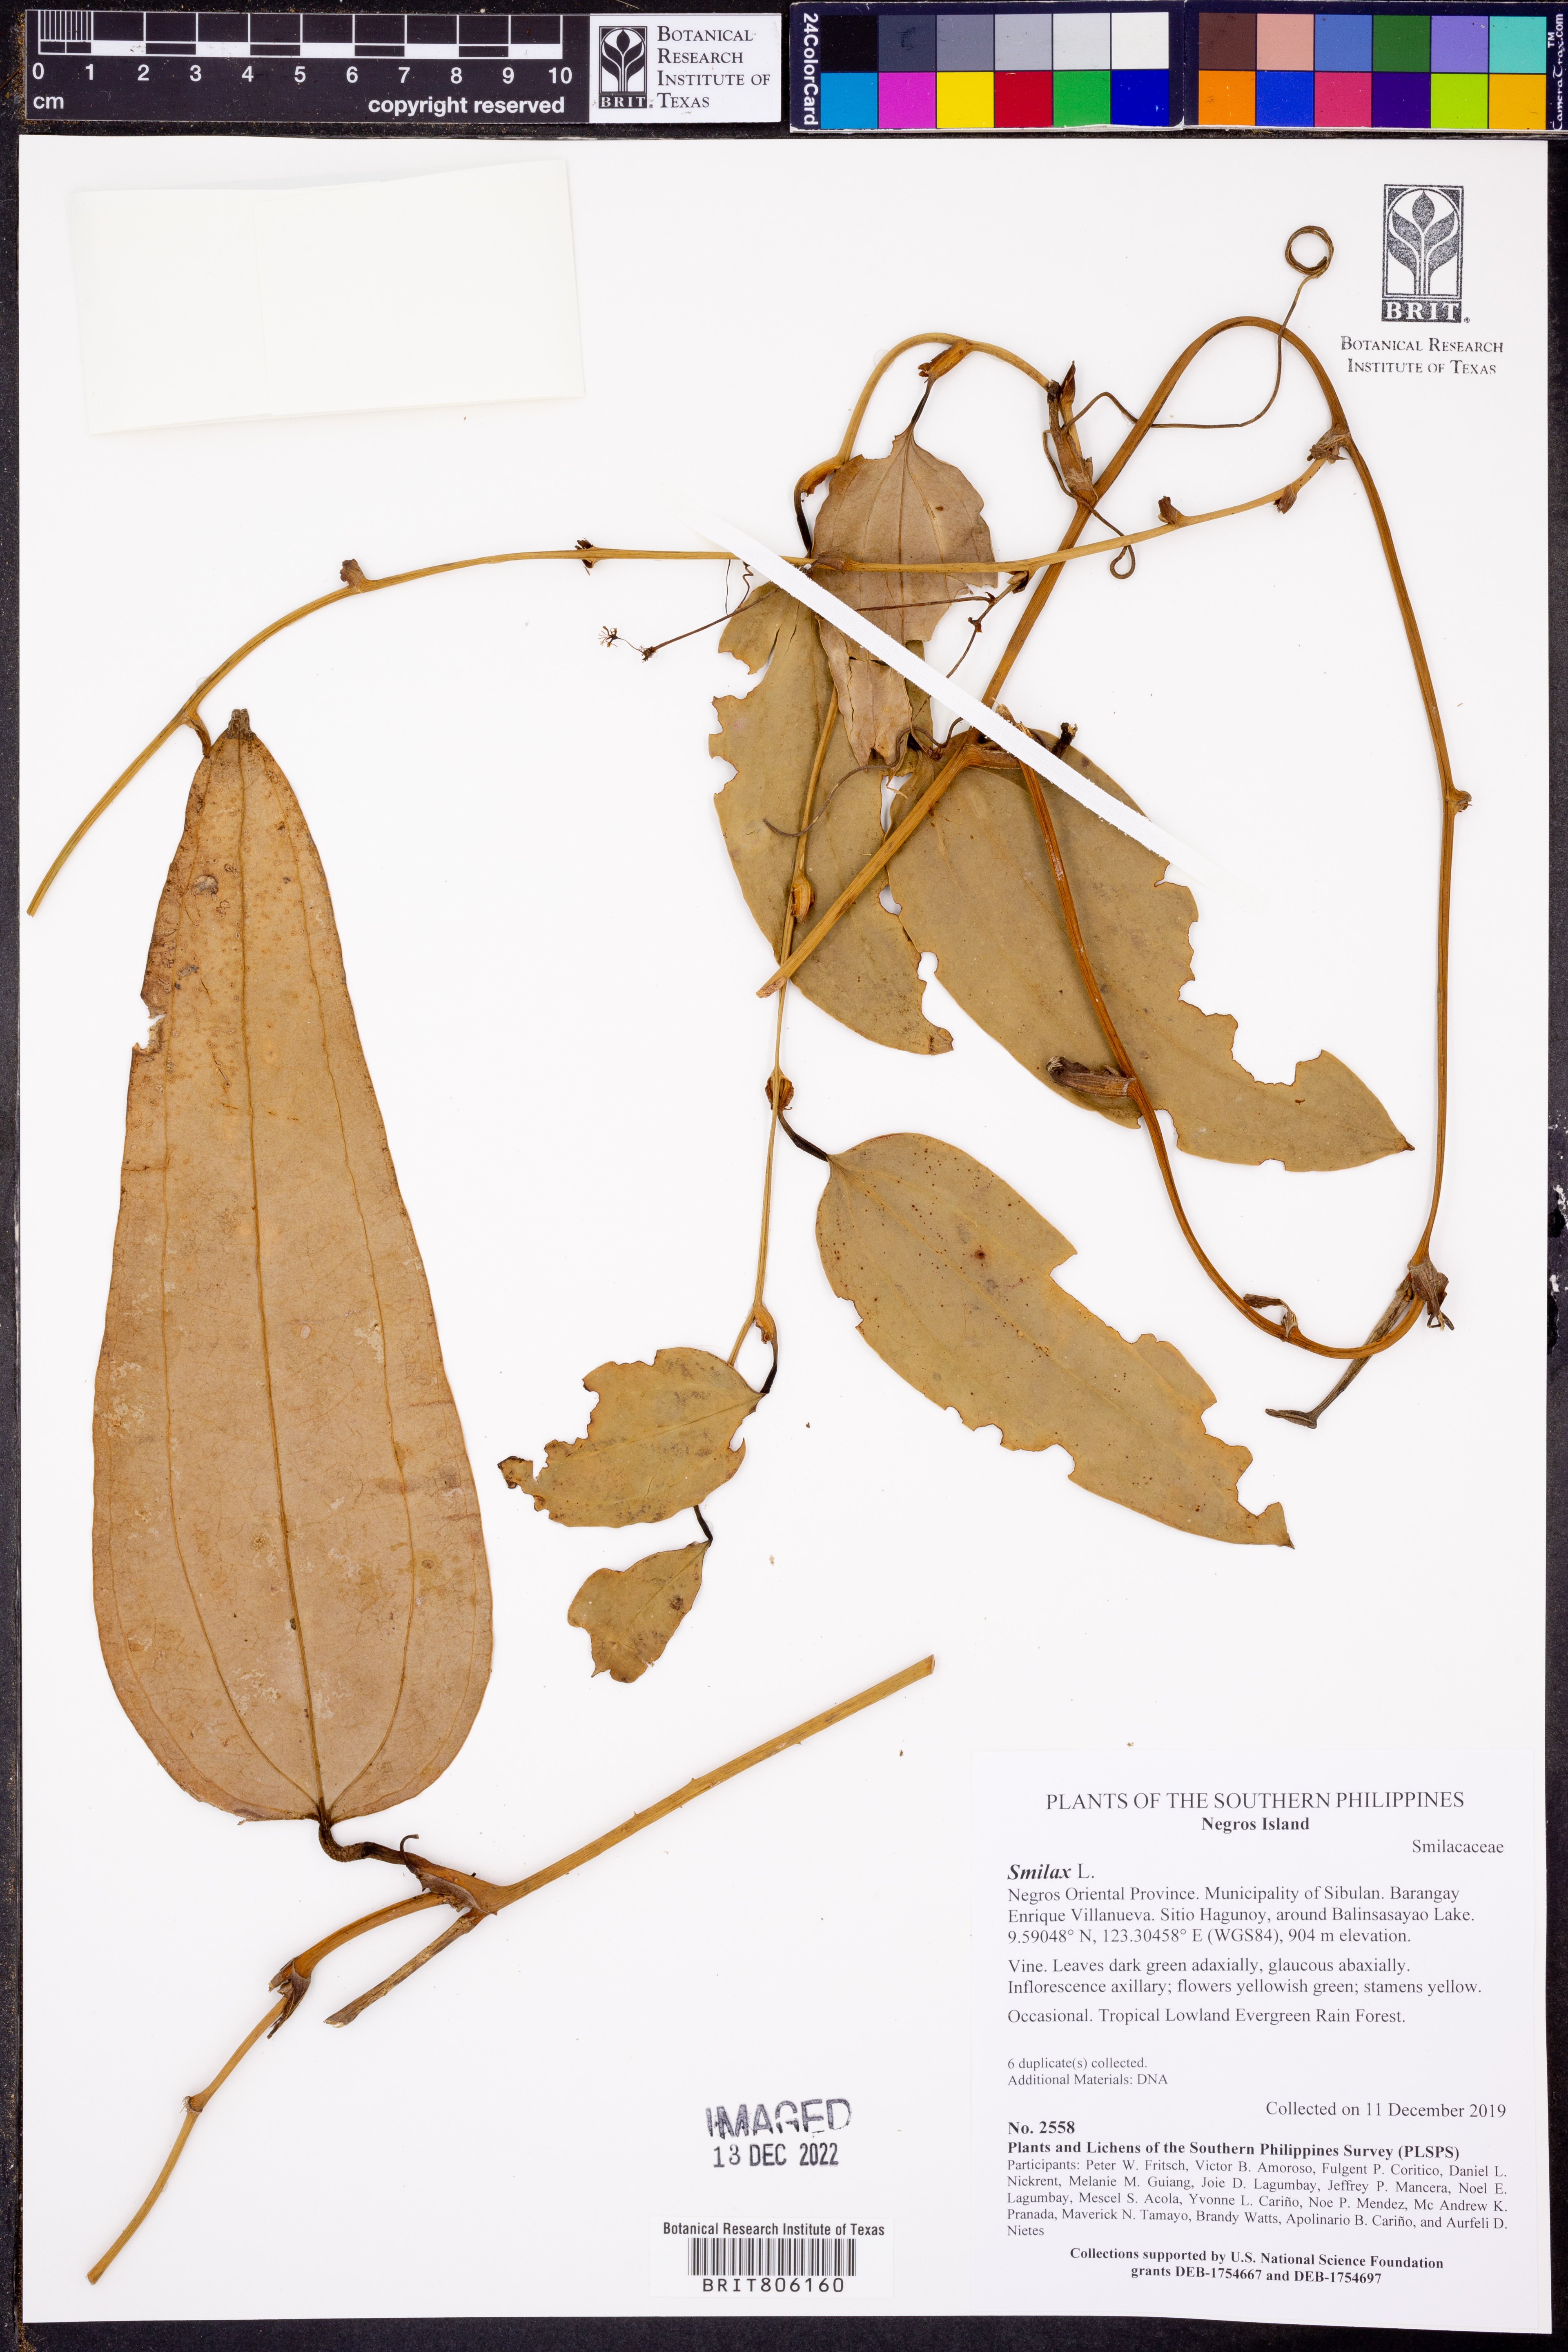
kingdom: Plantae
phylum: Tracheophyta
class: Liliopsida
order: Liliales
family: Smilacaceae
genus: Smilax
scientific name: Smilax
